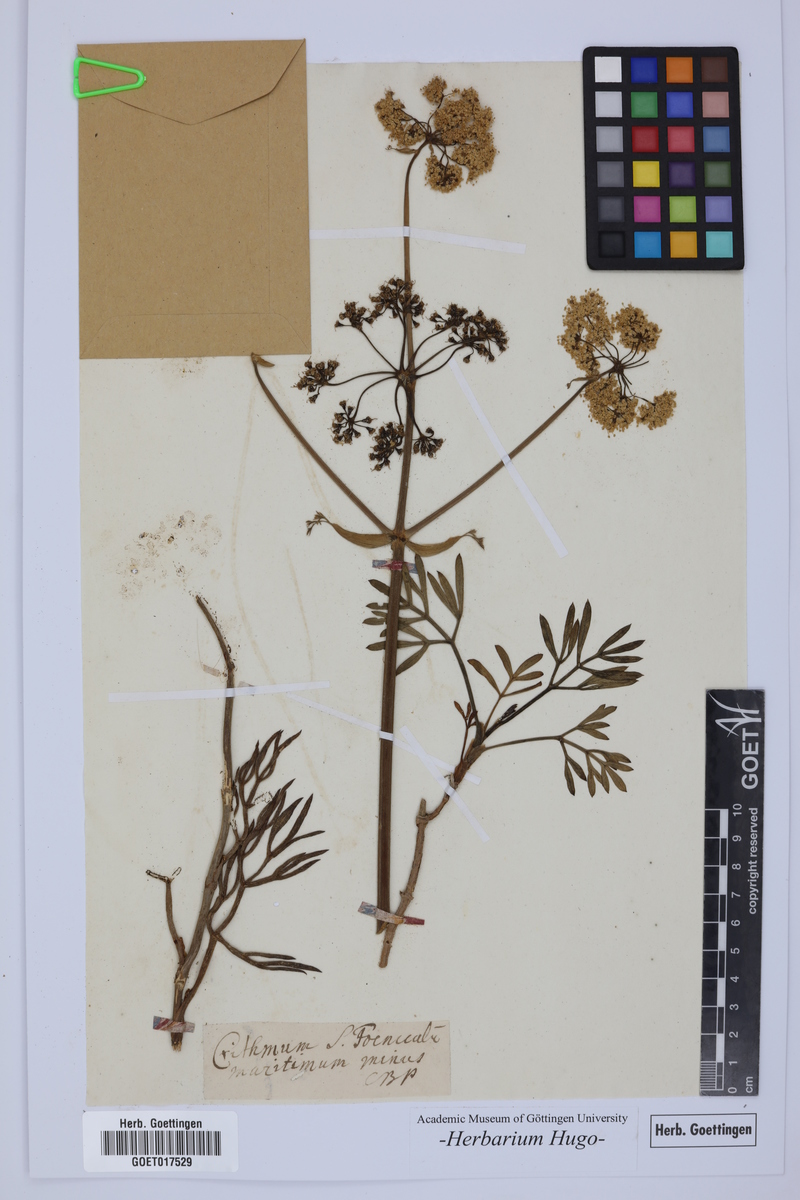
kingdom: Plantae
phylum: Tracheophyta
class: Magnoliopsida
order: Apiales
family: Apiaceae
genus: Crithmum
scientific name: Crithmum maritimum
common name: Rock samphire
